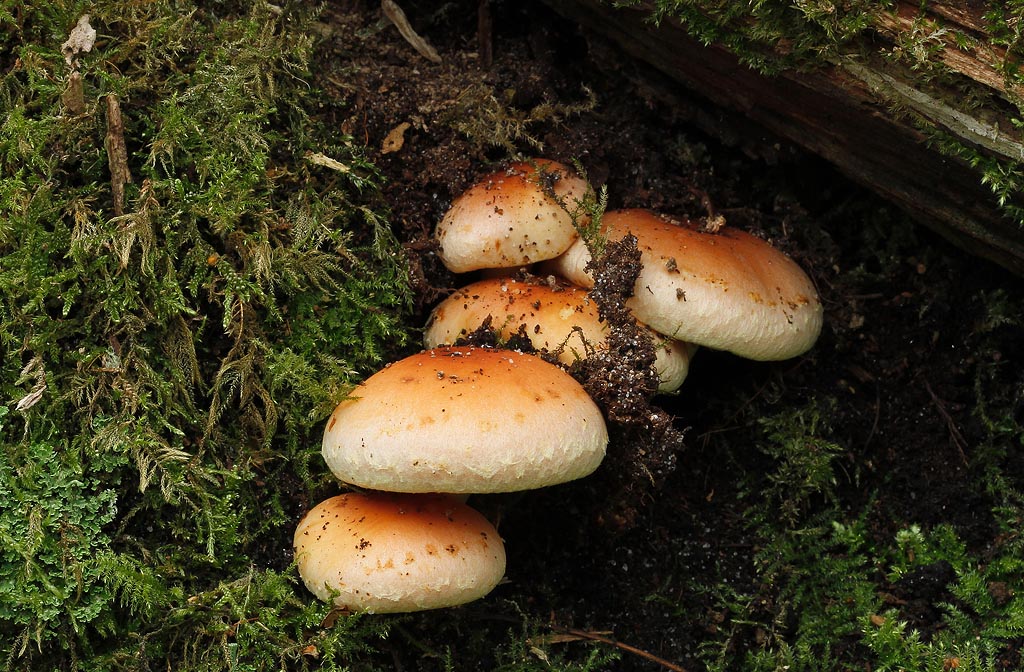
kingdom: Fungi
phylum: Basidiomycota
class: Agaricomycetes
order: Agaricales
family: Strophariaceae
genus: Hypholoma
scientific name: Hypholoma lateritium
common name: teglrød svovlhat
